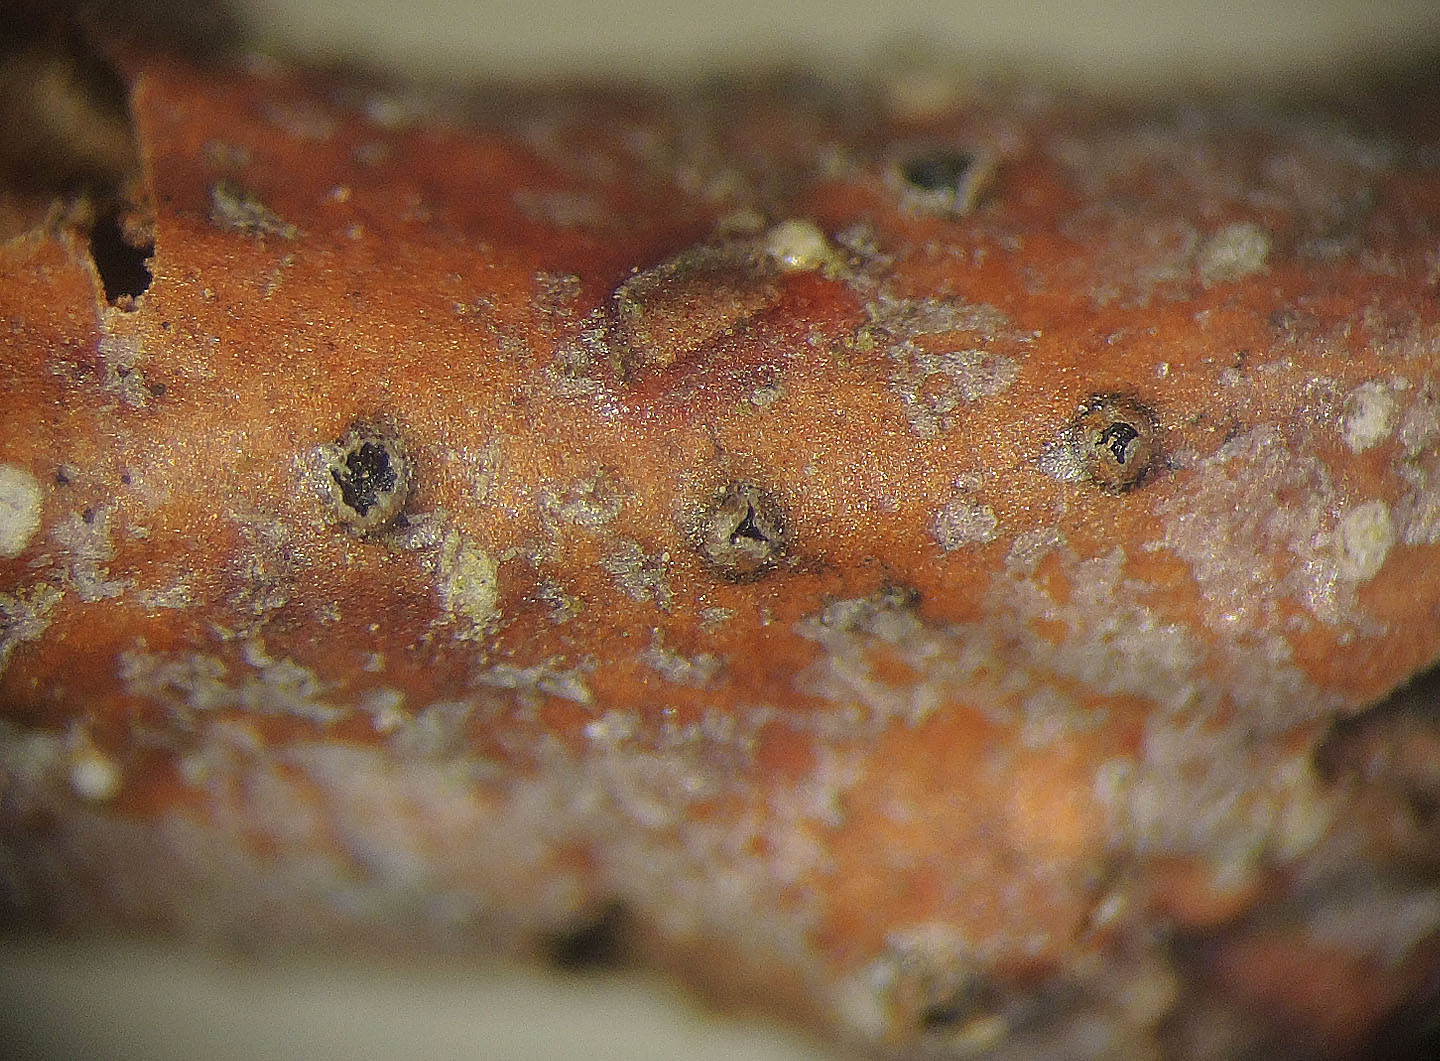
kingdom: Fungi
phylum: Ascomycota
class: Sordariomycetes
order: Diaporthales
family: Gnomoniaceae
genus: Ditopella
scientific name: Ditopella ditopa
